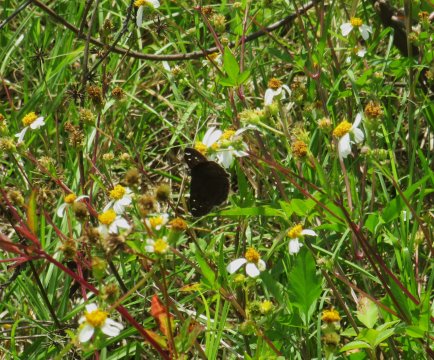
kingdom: Animalia
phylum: Arthropoda
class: Insecta
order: Lepidoptera
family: Hesperiidae
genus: Gesta
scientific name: Gesta
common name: Horace's Duskywing
